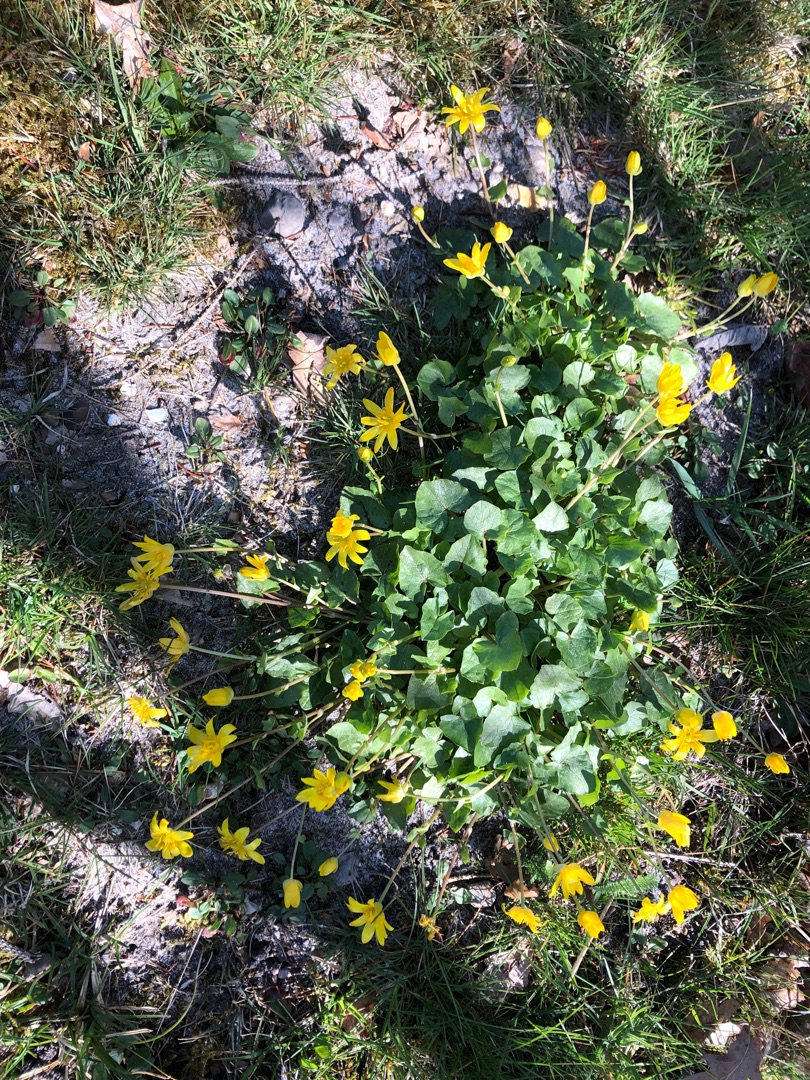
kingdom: Plantae
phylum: Tracheophyta
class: Magnoliopsida
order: Ranunculales
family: Ranunculaceae
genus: Ficaria
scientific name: Ficaria verna
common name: Vorterod
